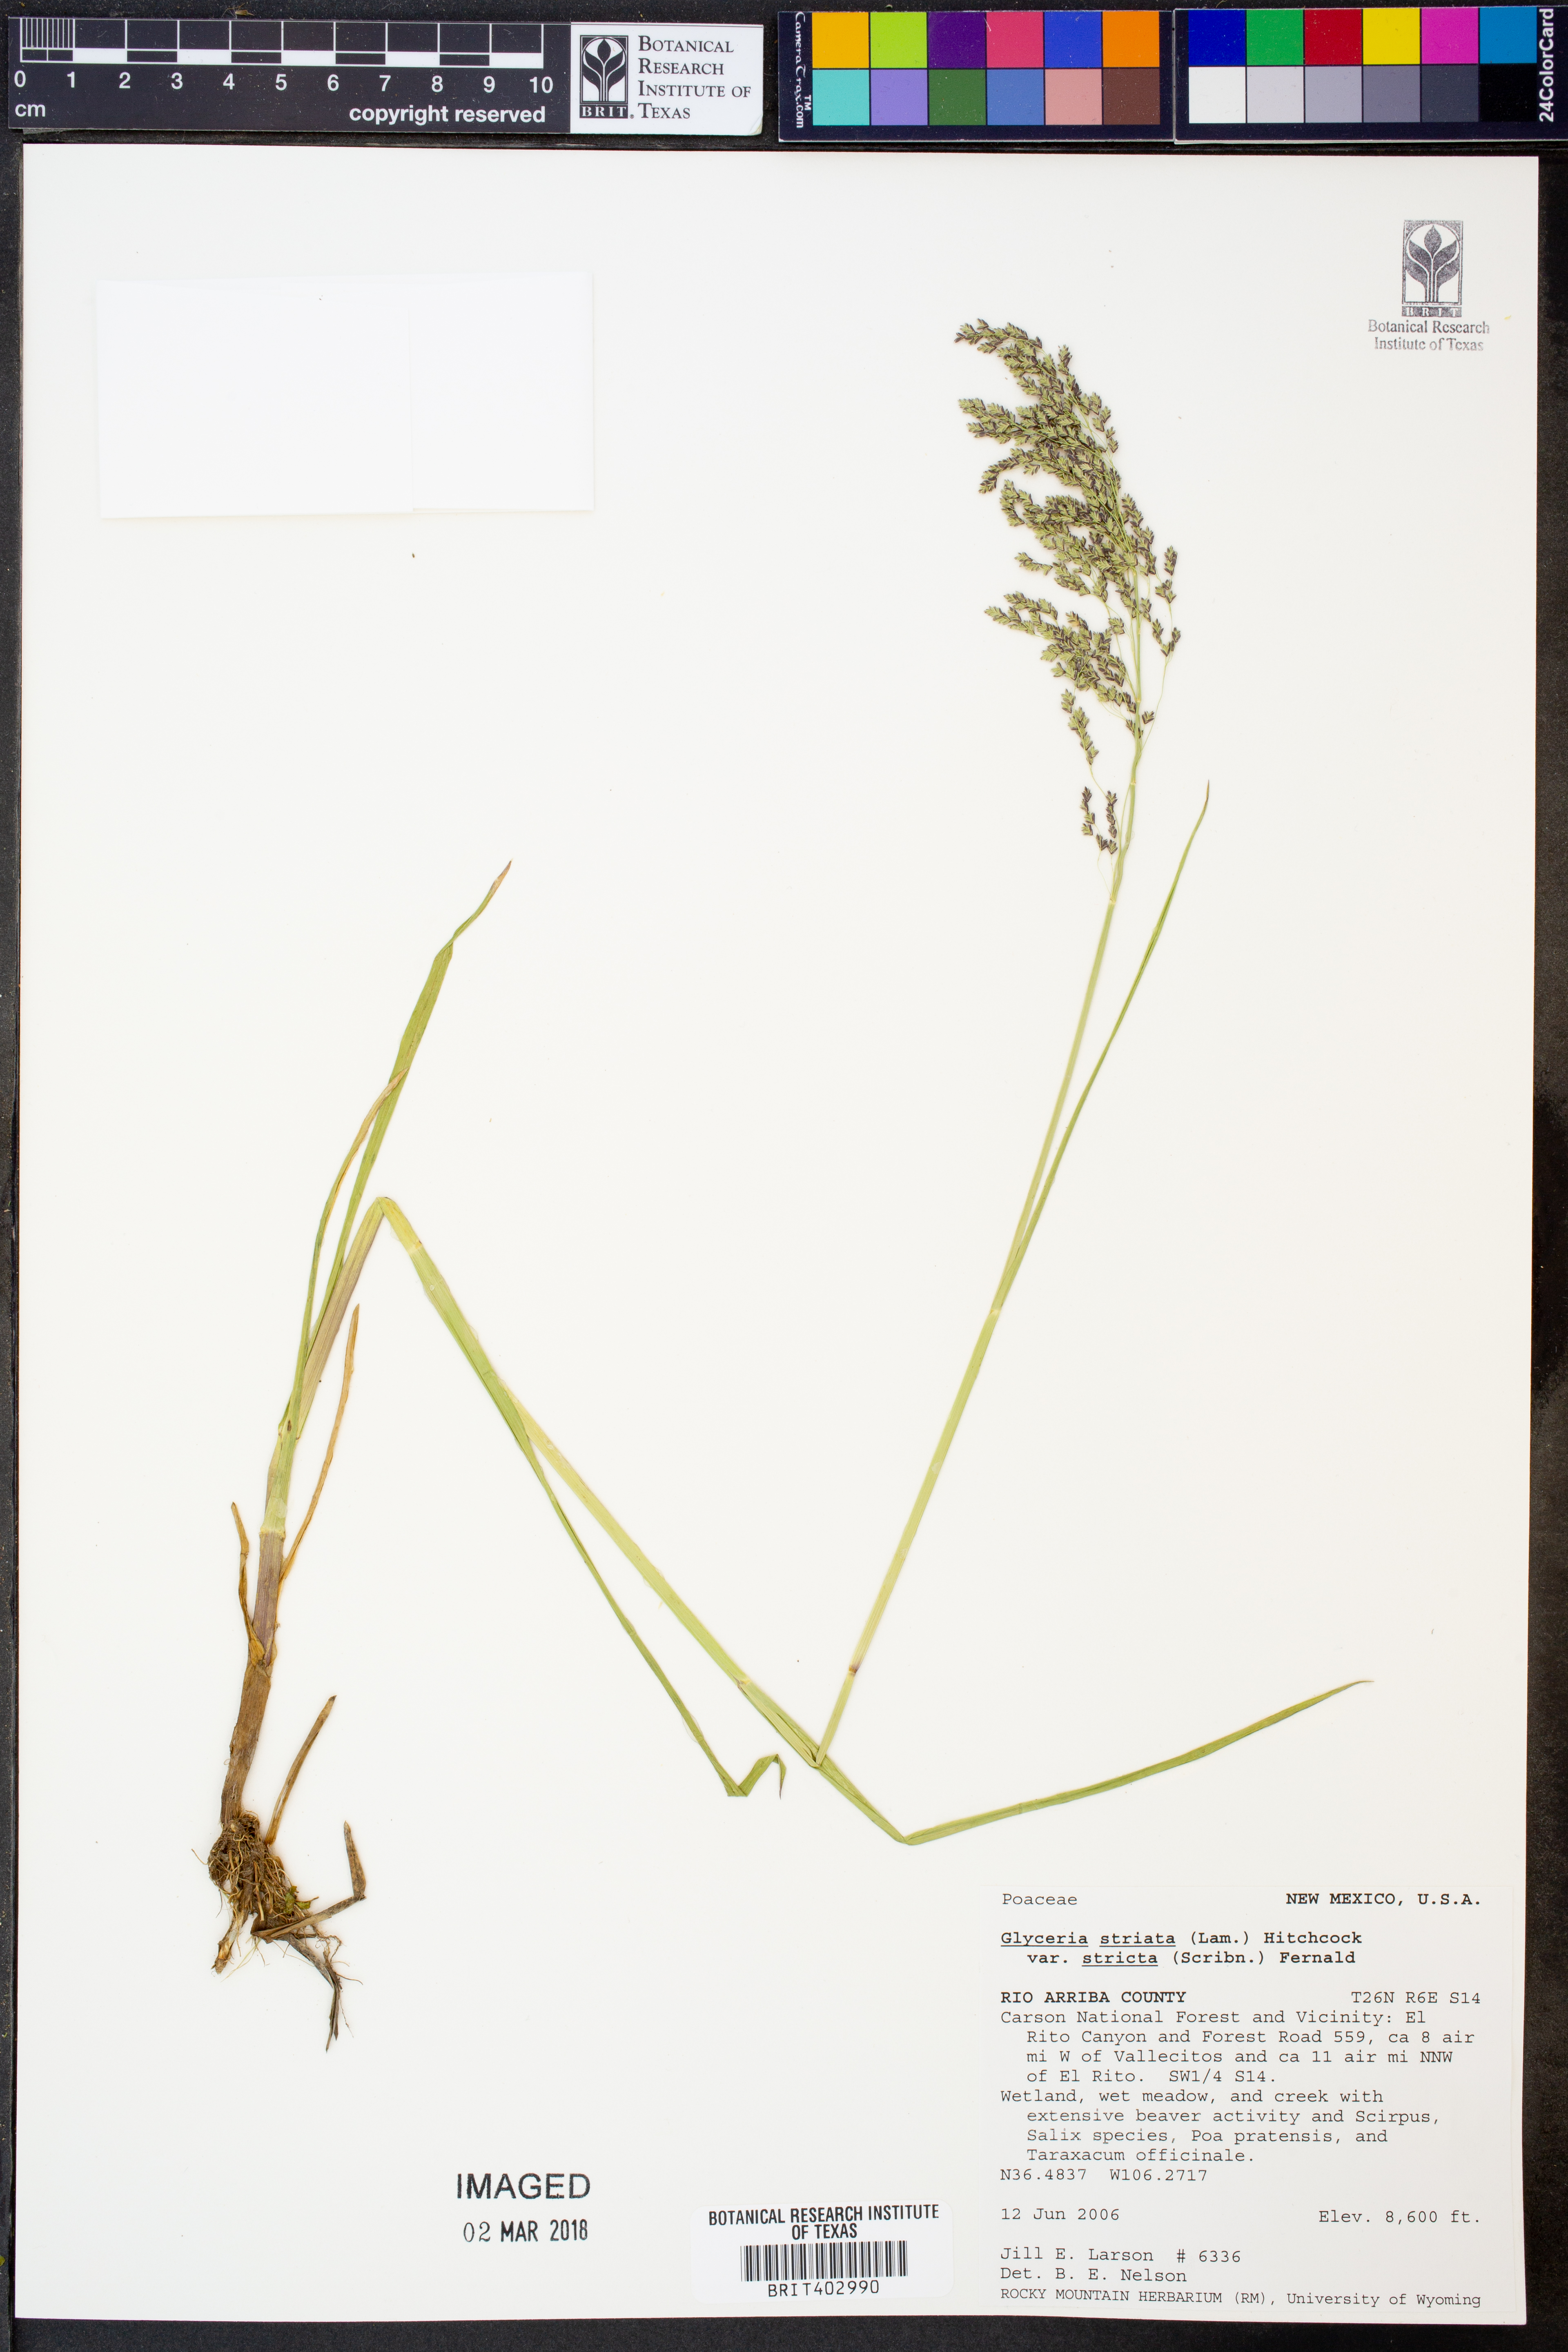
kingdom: Plantae
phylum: Tracheophyta
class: Liliopsida
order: Poales
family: Poaceae
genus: Glyceria
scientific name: Glyceria striata
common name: Fowl manna grass
